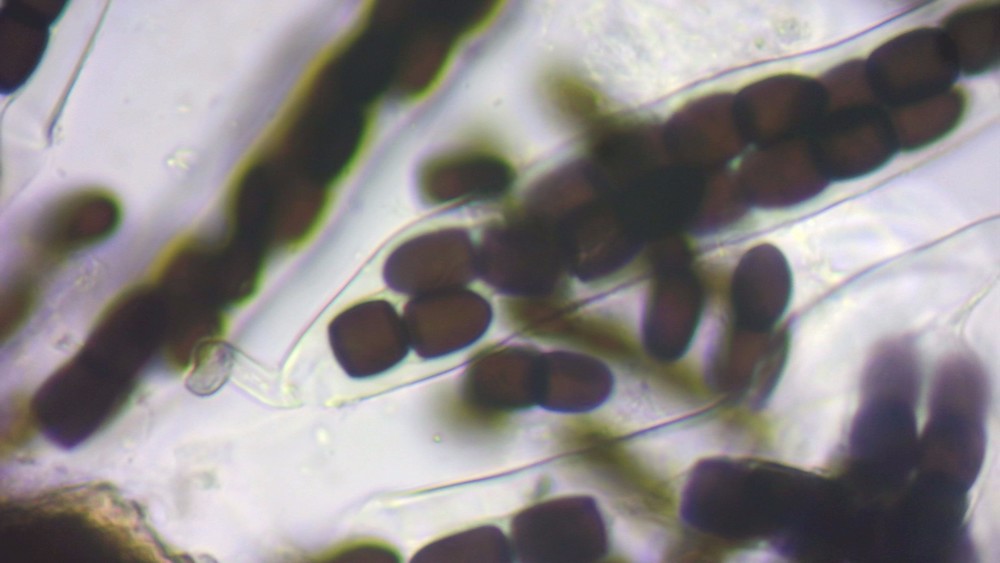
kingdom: Fungi
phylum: Ascomycota
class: Dothideomycetes
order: Pleosporales
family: Sporormiaceae
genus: Sporormiella
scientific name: Sporormiella intermedia
